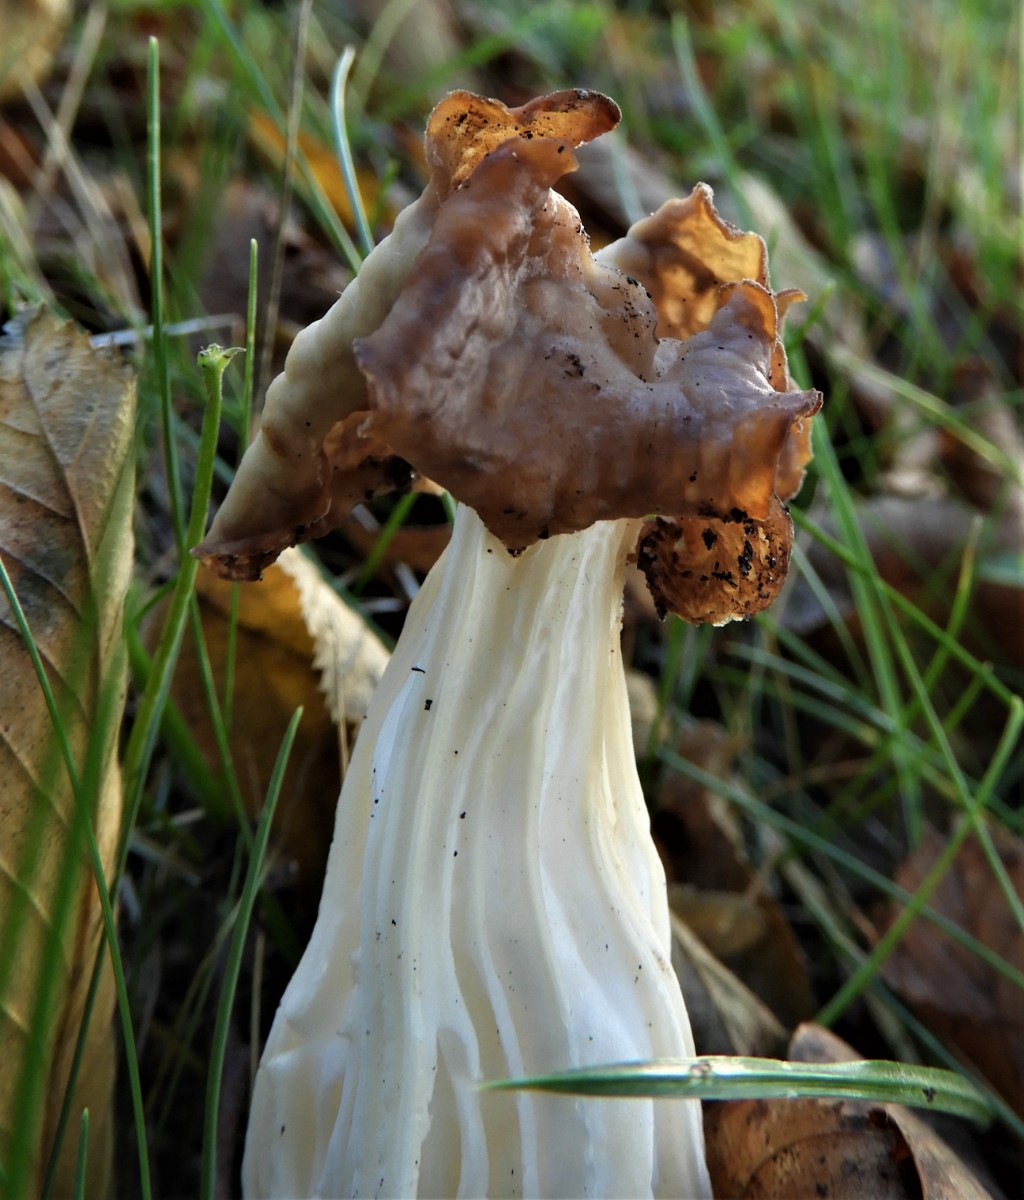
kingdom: Fungi
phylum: Ascomycota
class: Pezizomycetes
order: Pezizales
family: Helvellaceae
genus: Helvella
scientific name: Helvella crispa
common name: kruset foldhat
